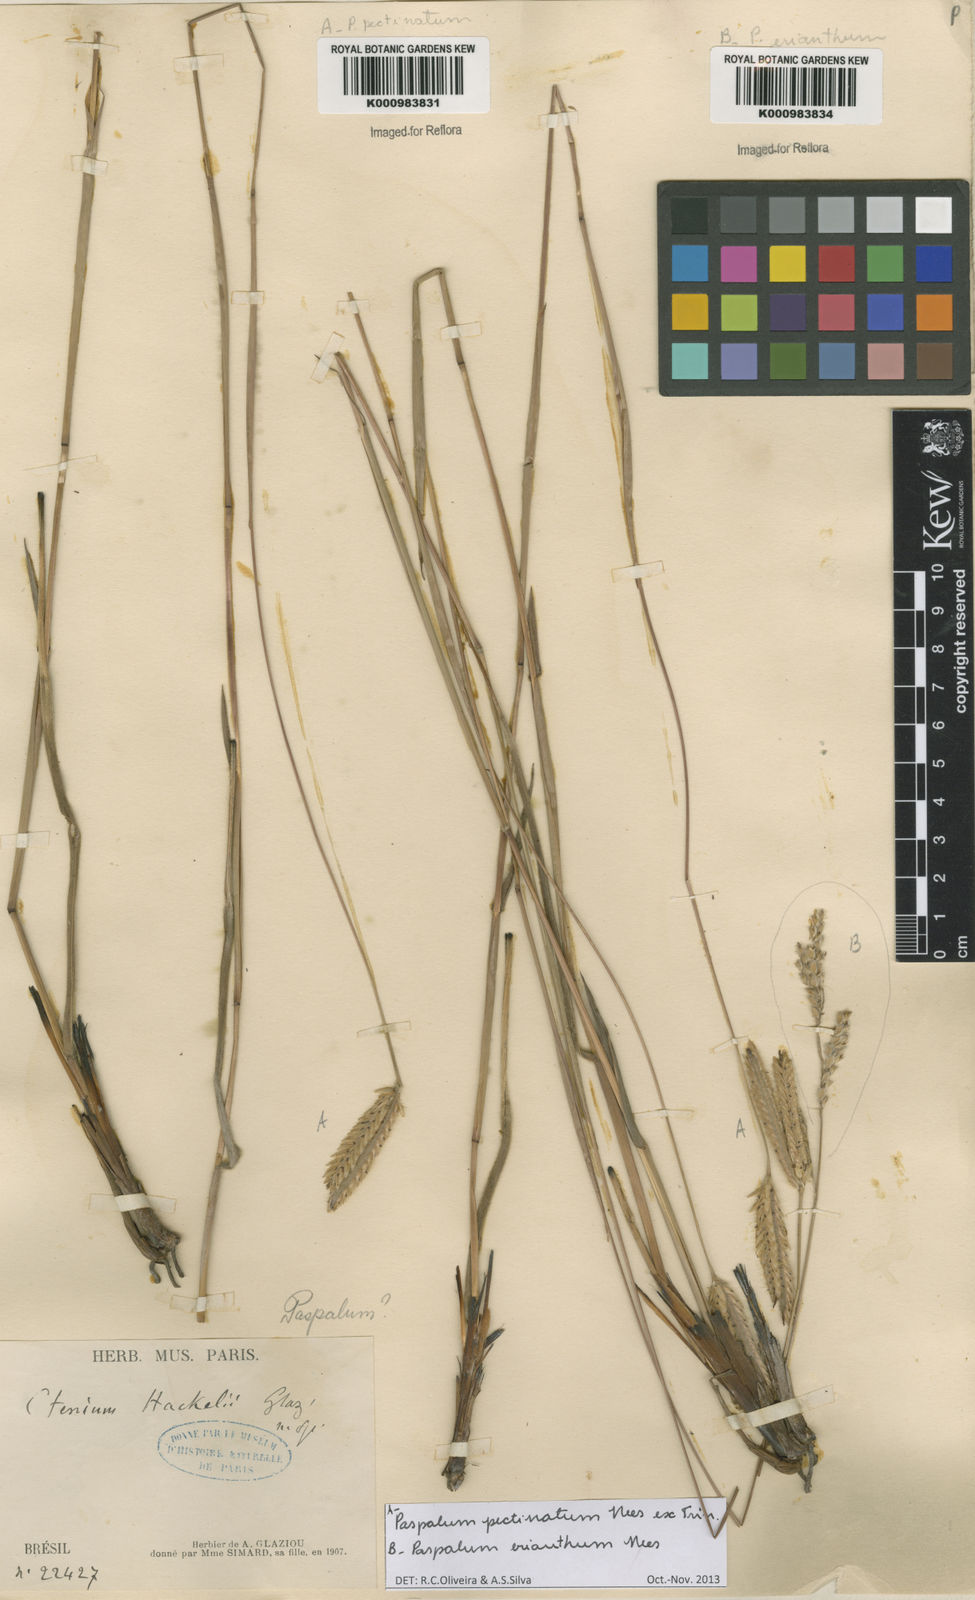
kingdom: Plantae
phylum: Tracheophyta
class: Liliopsida
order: Poales
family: Poaceae
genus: Paspalum
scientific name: Paspalum pectinatum
